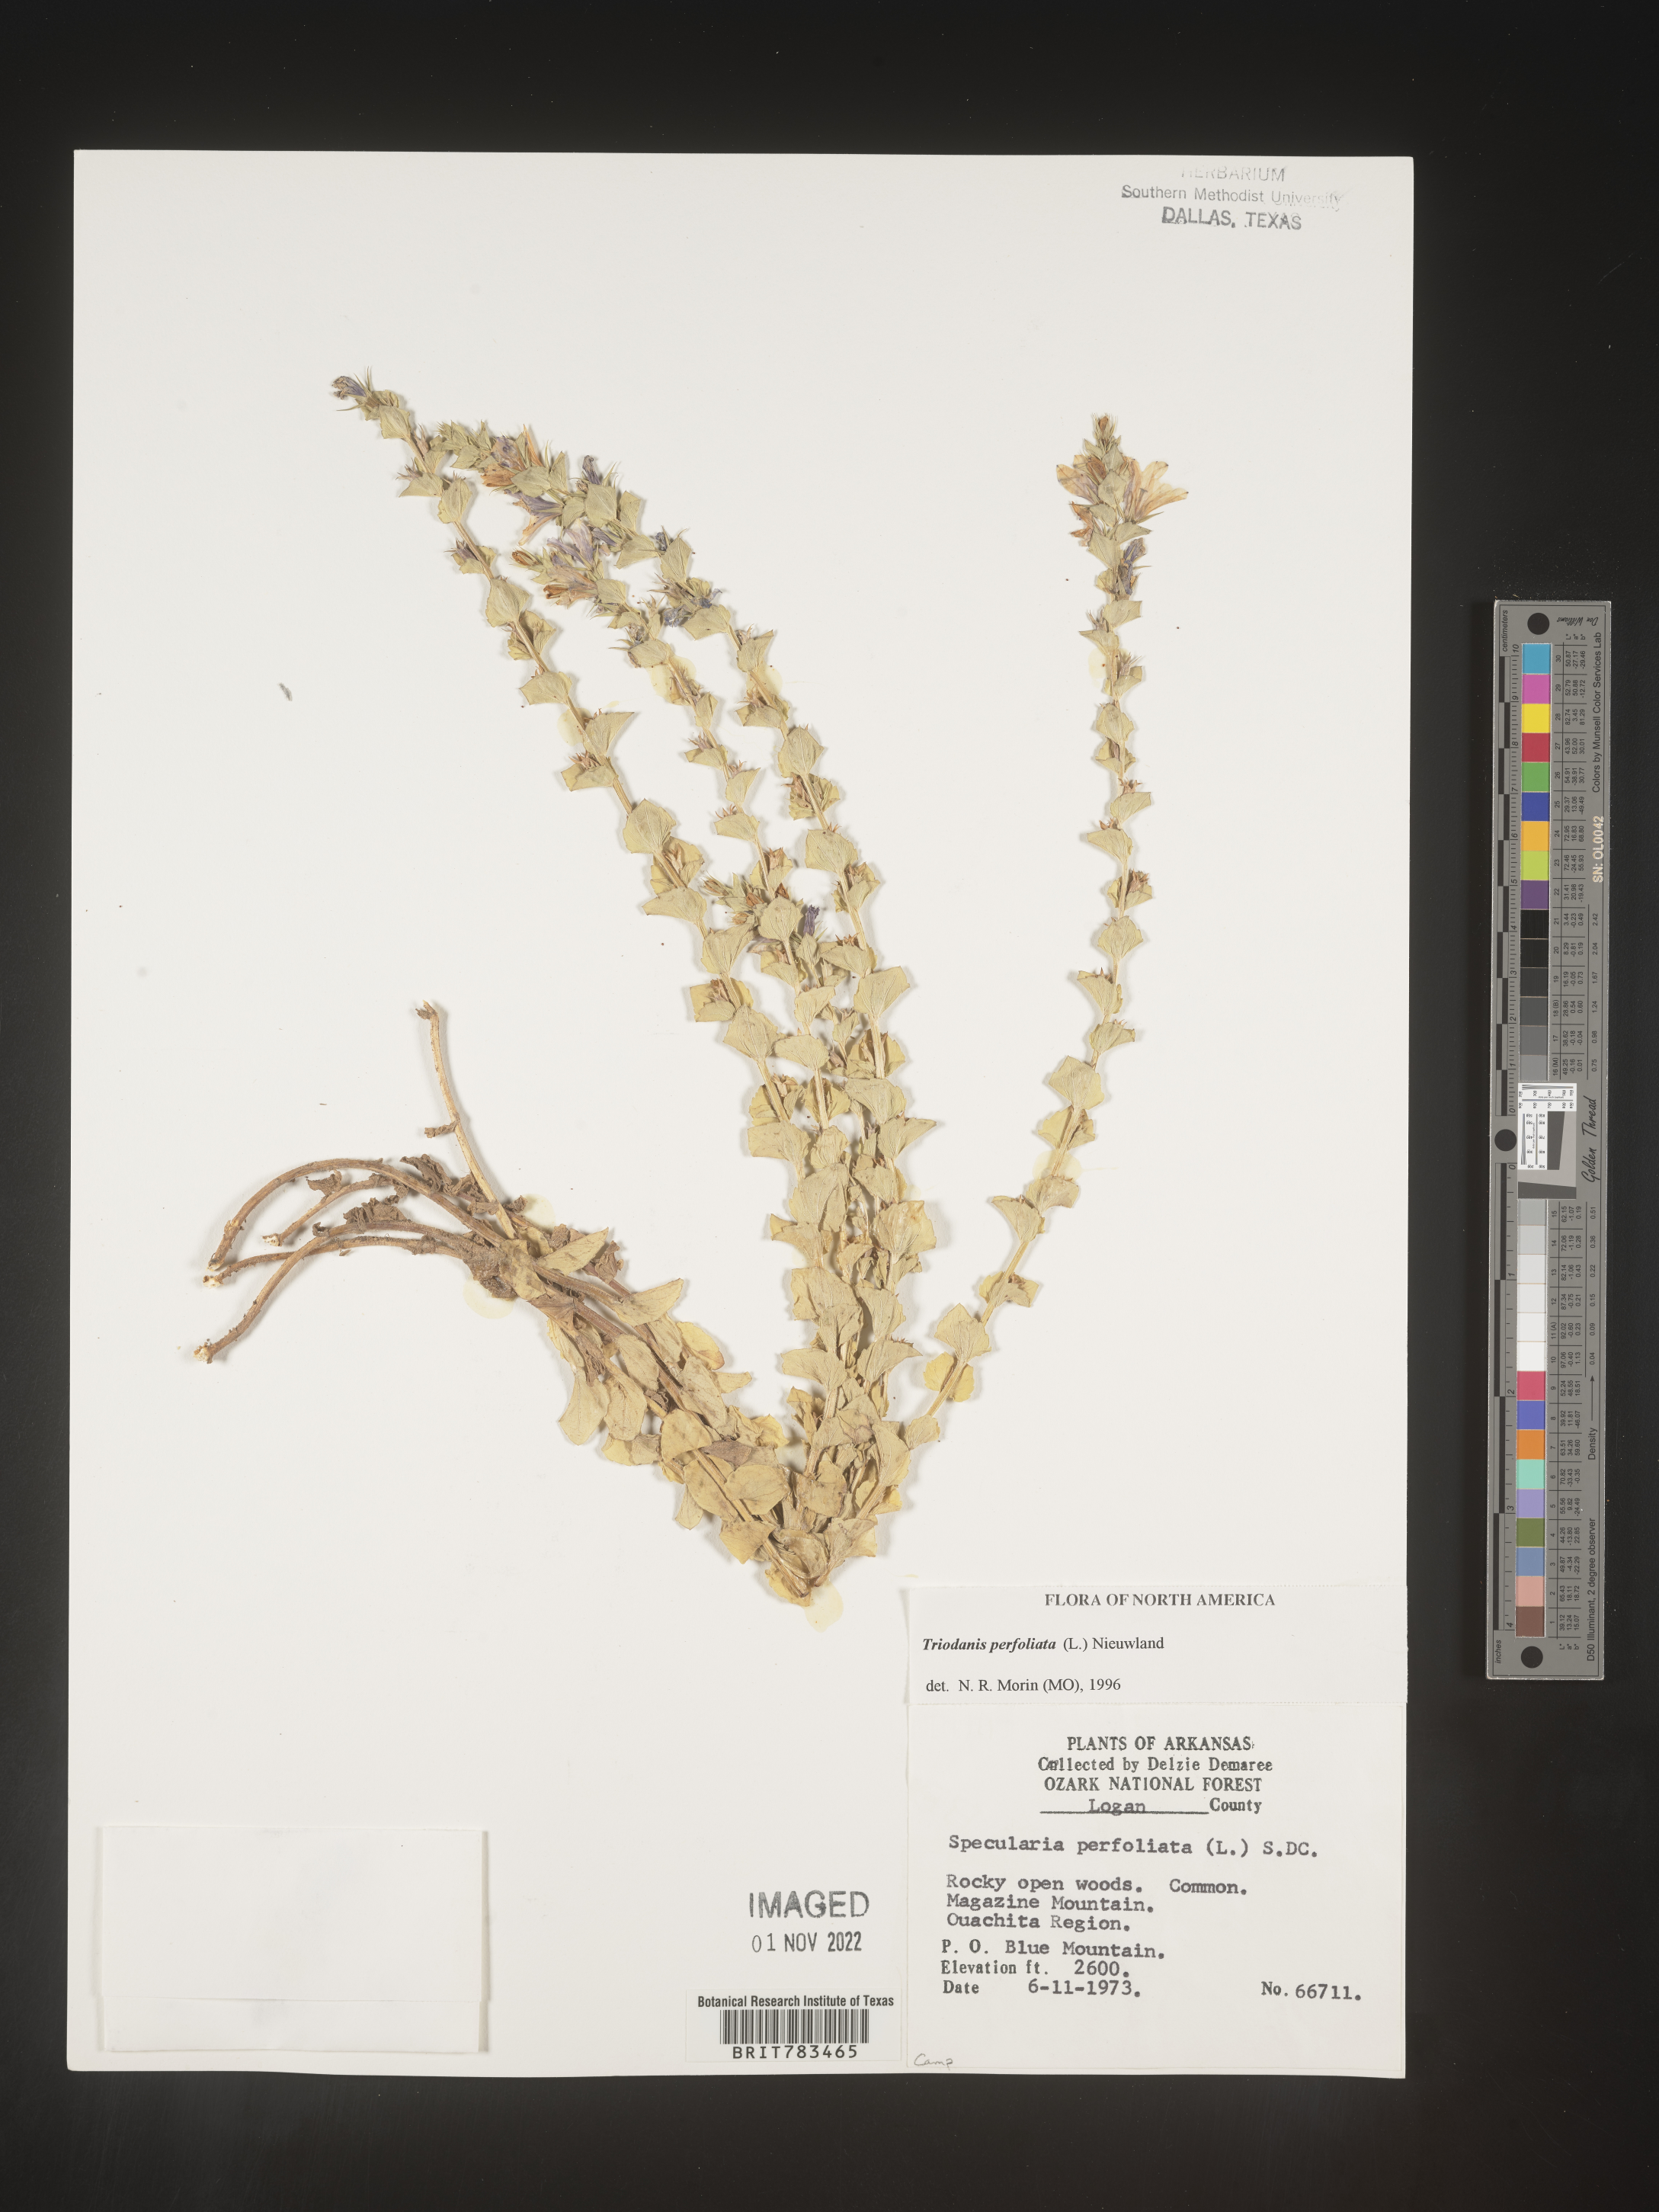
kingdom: Plantae
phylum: Tracheophyta
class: Magnoliopsida
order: Asterales
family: Campanulaceae
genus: Triodanis
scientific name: Triodanis perfoliata
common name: Clasping venus' looking-glass
